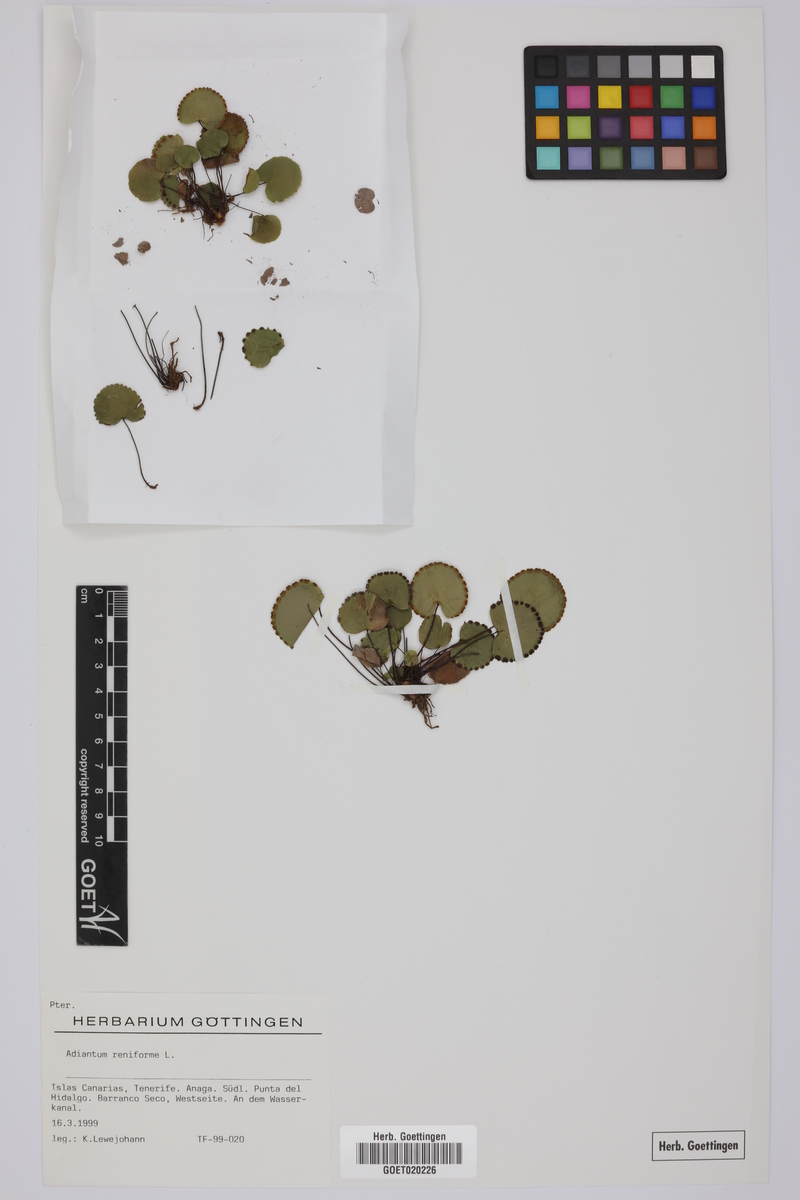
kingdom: Plantae
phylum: Tracheophyta
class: Polypodiopsida
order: Polypodiales
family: Pteridaceae
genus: Adiantum
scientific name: Adiantum reniforme
